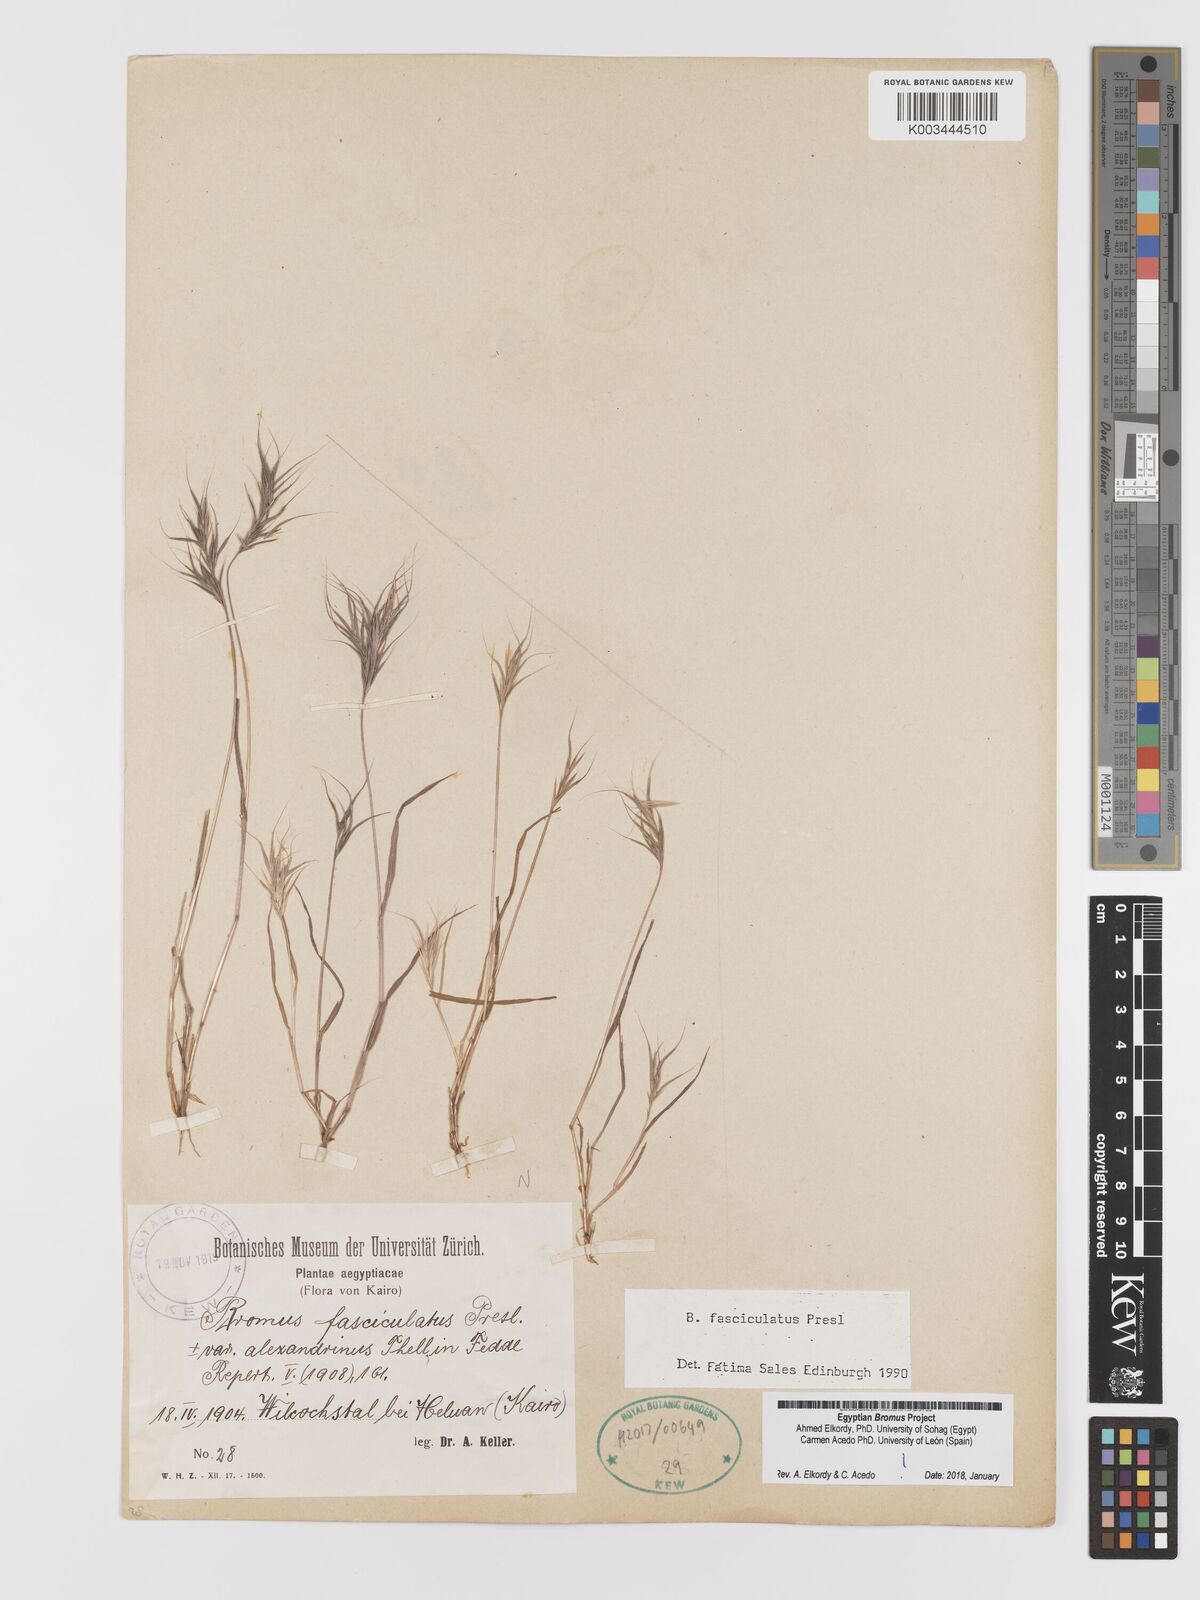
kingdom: Plantae
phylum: Tracheophyta
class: Liliopsida
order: Poales
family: Poaceae
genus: Bromus
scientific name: Bromus fasciculatus
